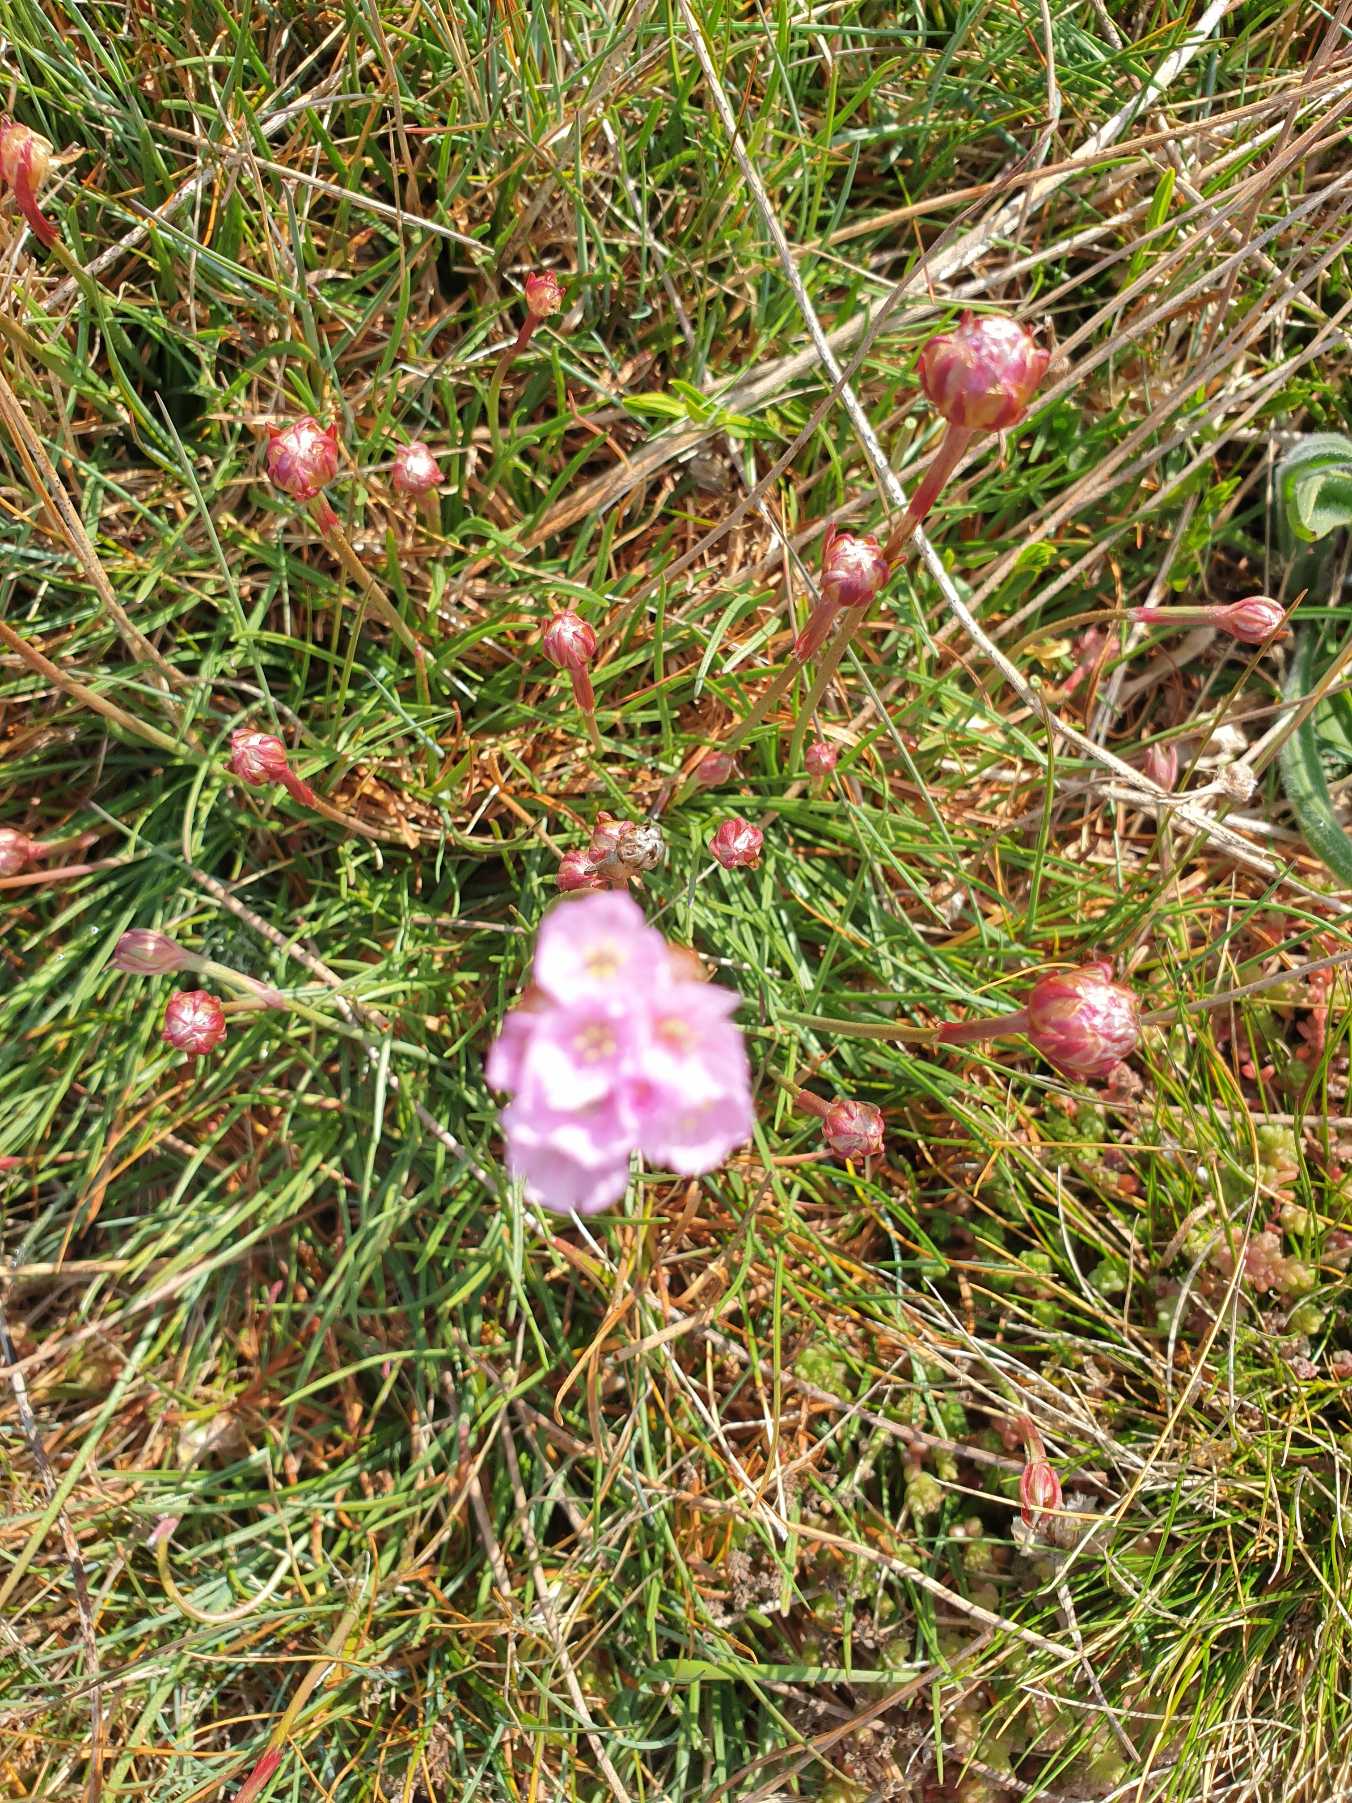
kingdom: Plantae
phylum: Tracheophyta
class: Magnoliopsida
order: Caryophyllales
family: Plumbaginaceae
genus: Armeria
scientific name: Armeria maritima
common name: Engelskgræs
